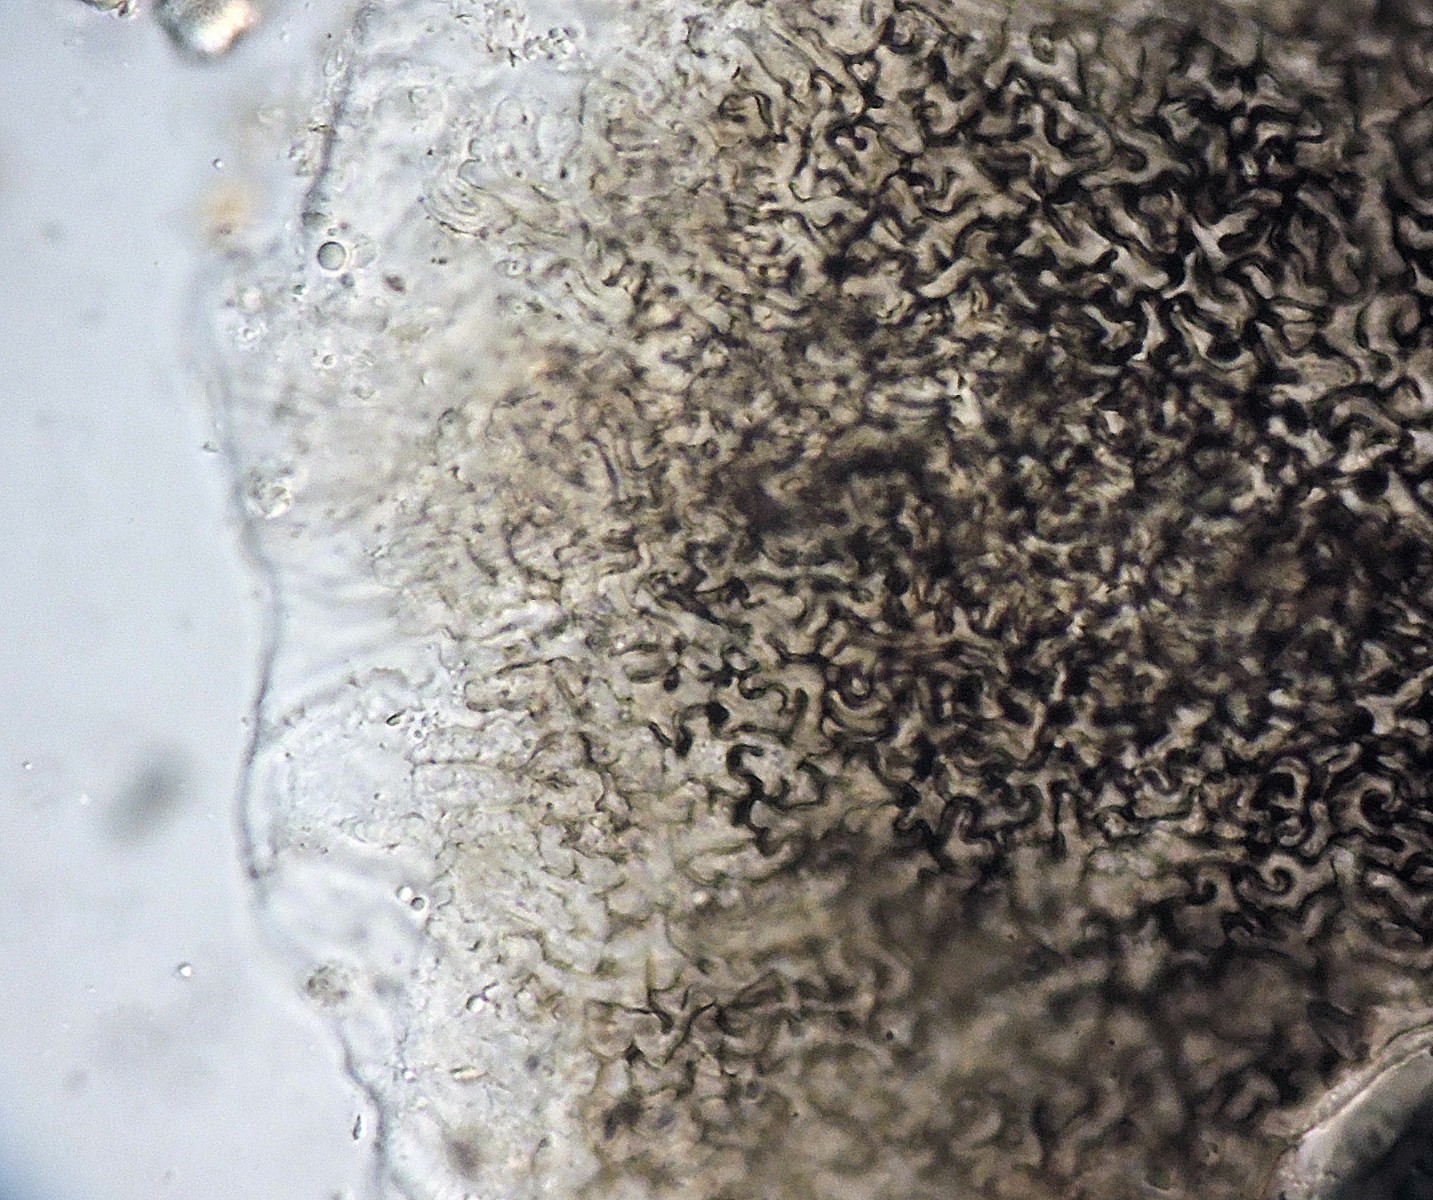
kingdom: Fungi
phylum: Ascomycota
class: Dothideomycetes
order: Mycosphaerellales
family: Schizothyriaceae
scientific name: Schizothyriaceae
